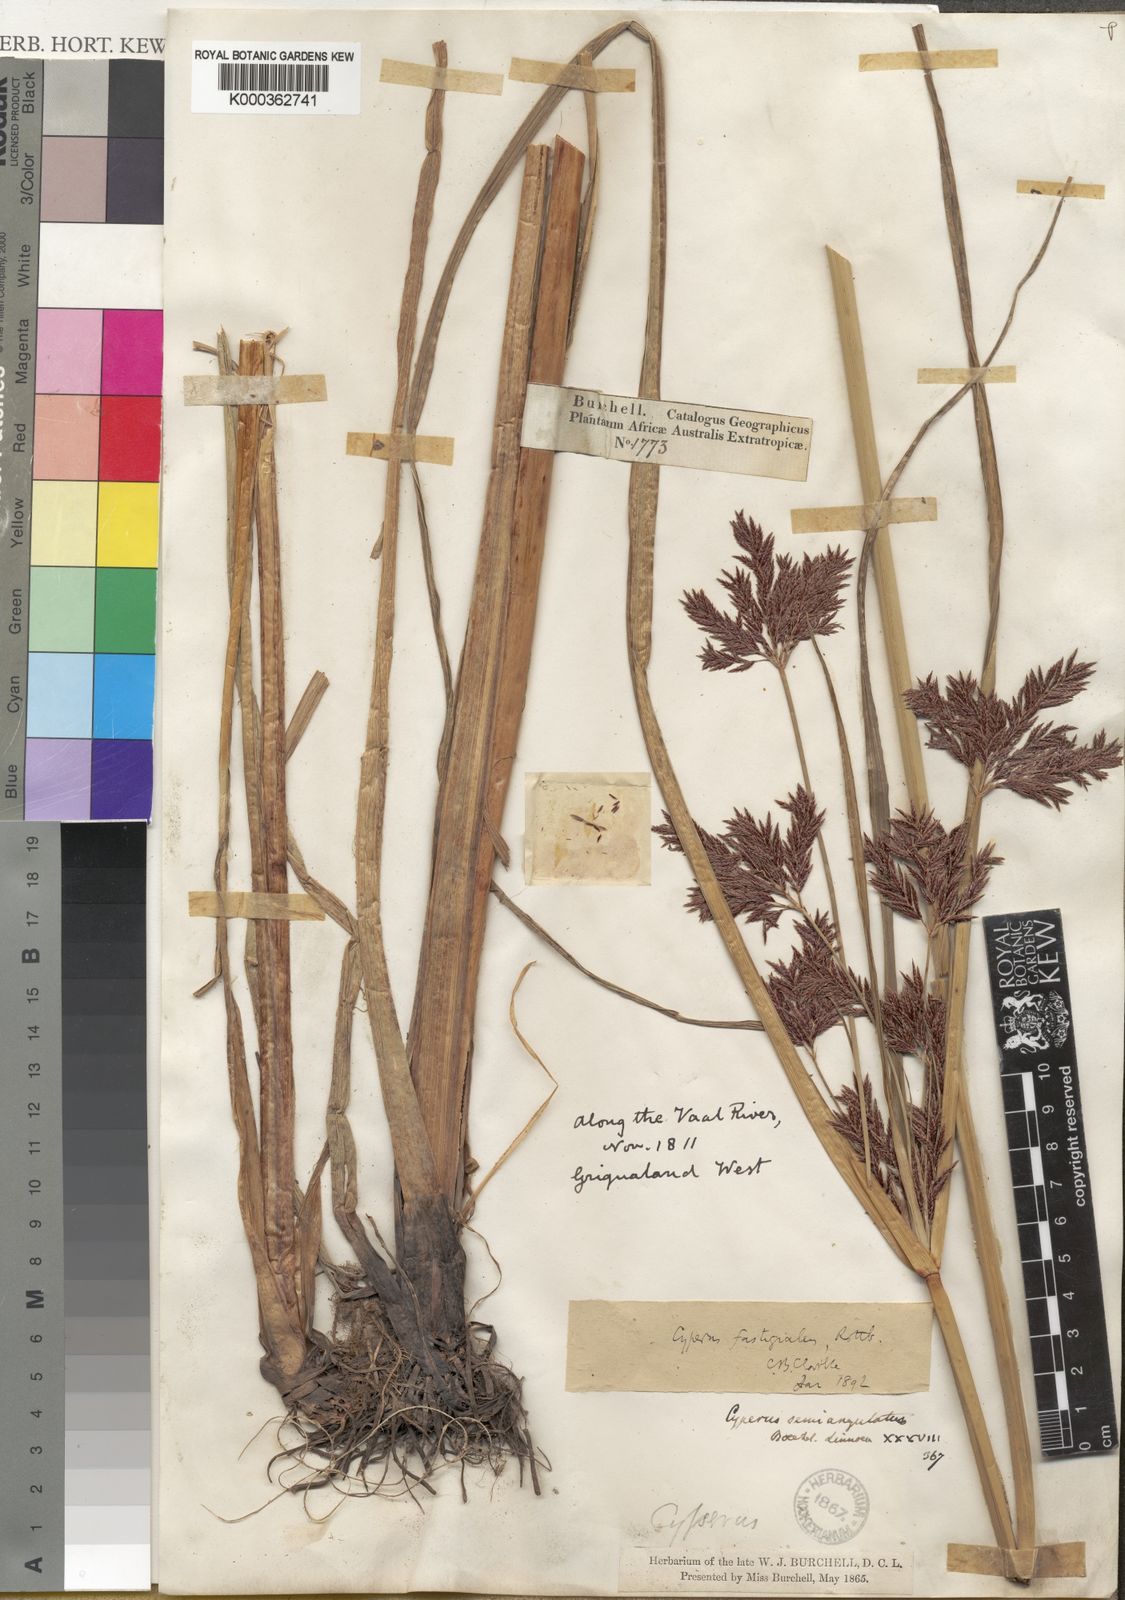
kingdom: Plantae
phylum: Tracheophyta
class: Liliopsida
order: Poales
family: Cyperaceae
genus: Cyperus
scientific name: Cyperus fastigiatus
